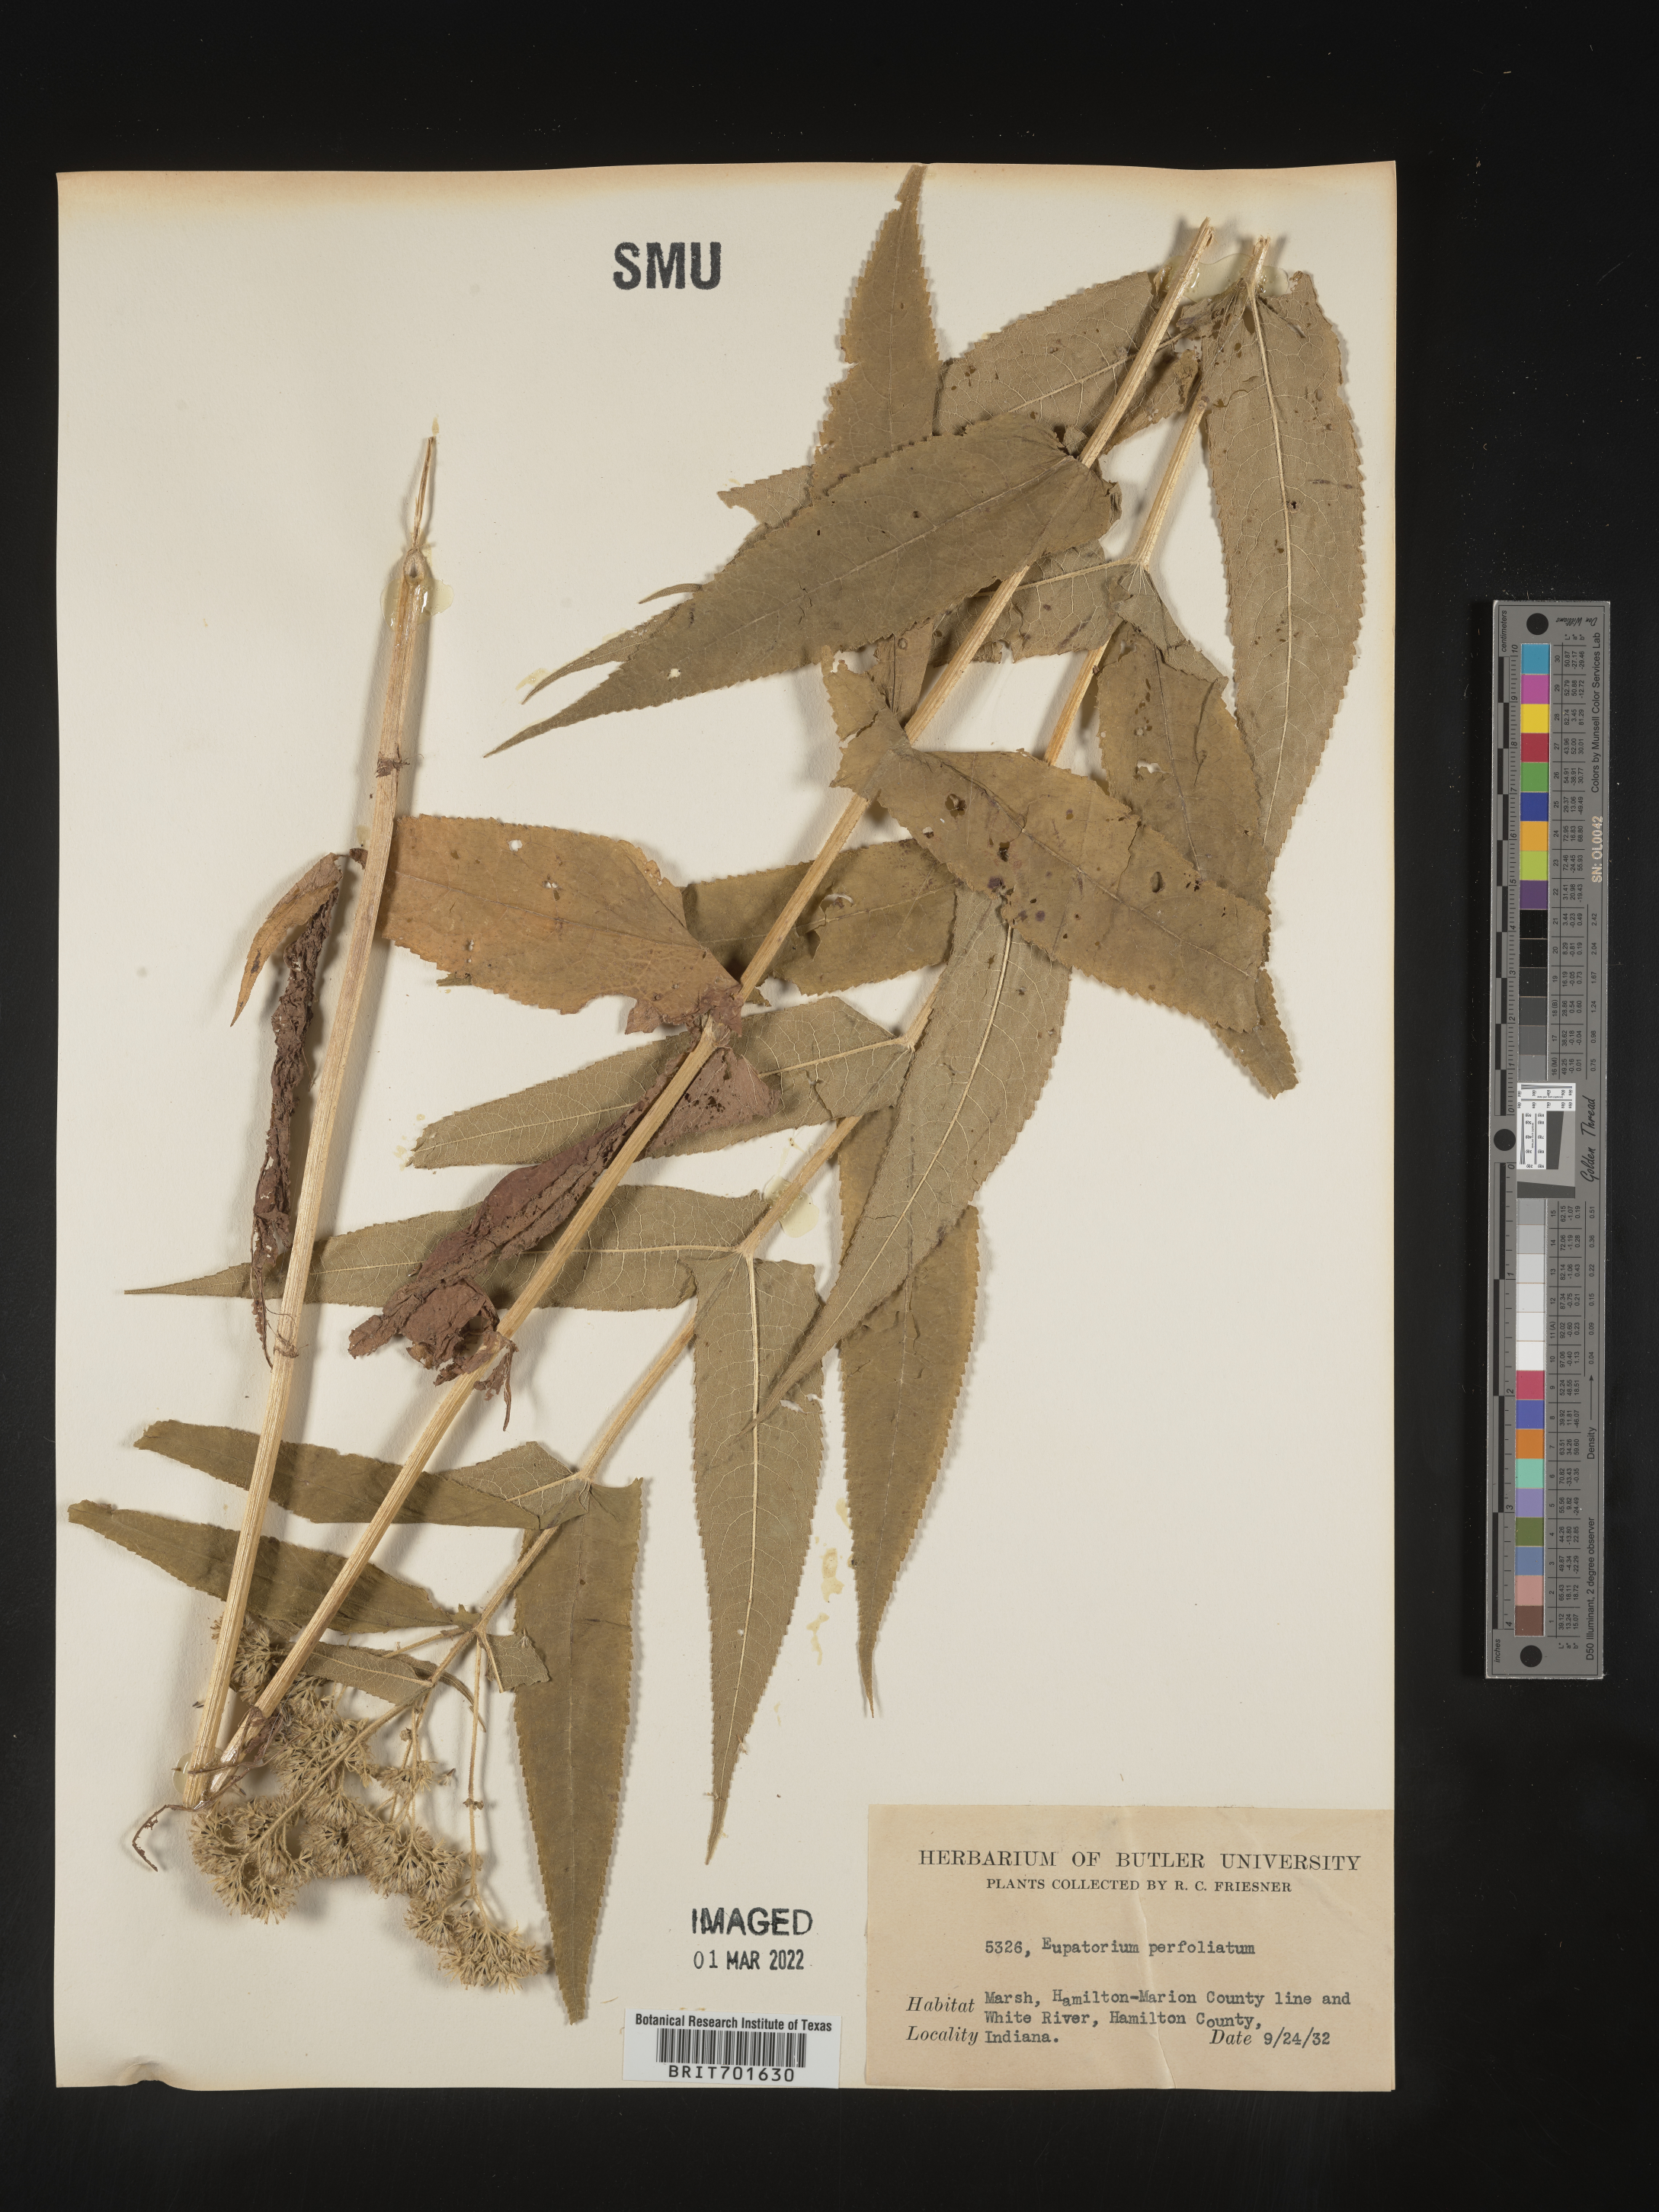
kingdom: Plantae
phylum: Tracheophyta
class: Magnoliopsida
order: Asterales
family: Asteraceae
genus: Eupatorium
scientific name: Eupatorium perfoliatum
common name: Boneset
